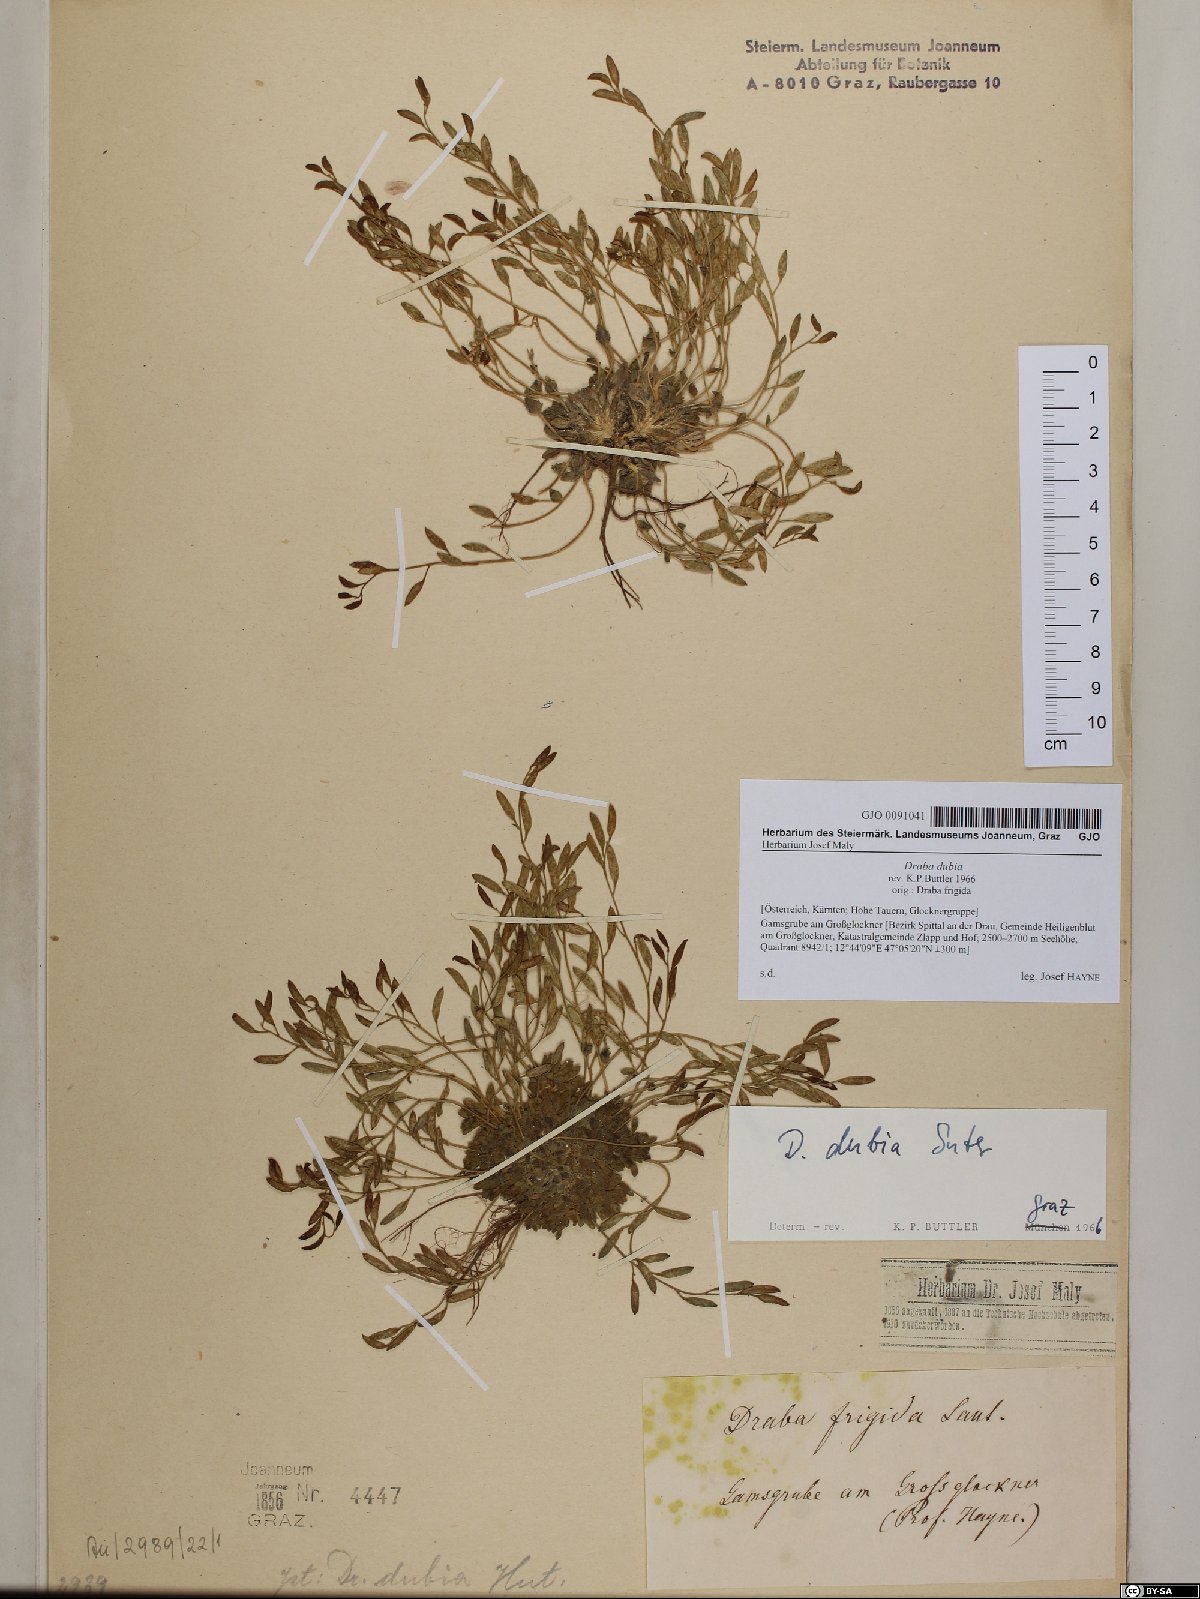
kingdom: Plantae
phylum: Tracheophyta
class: Magnoliopsida
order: Brassicales
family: Brassicaceae
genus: Draba
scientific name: Draba dubia
